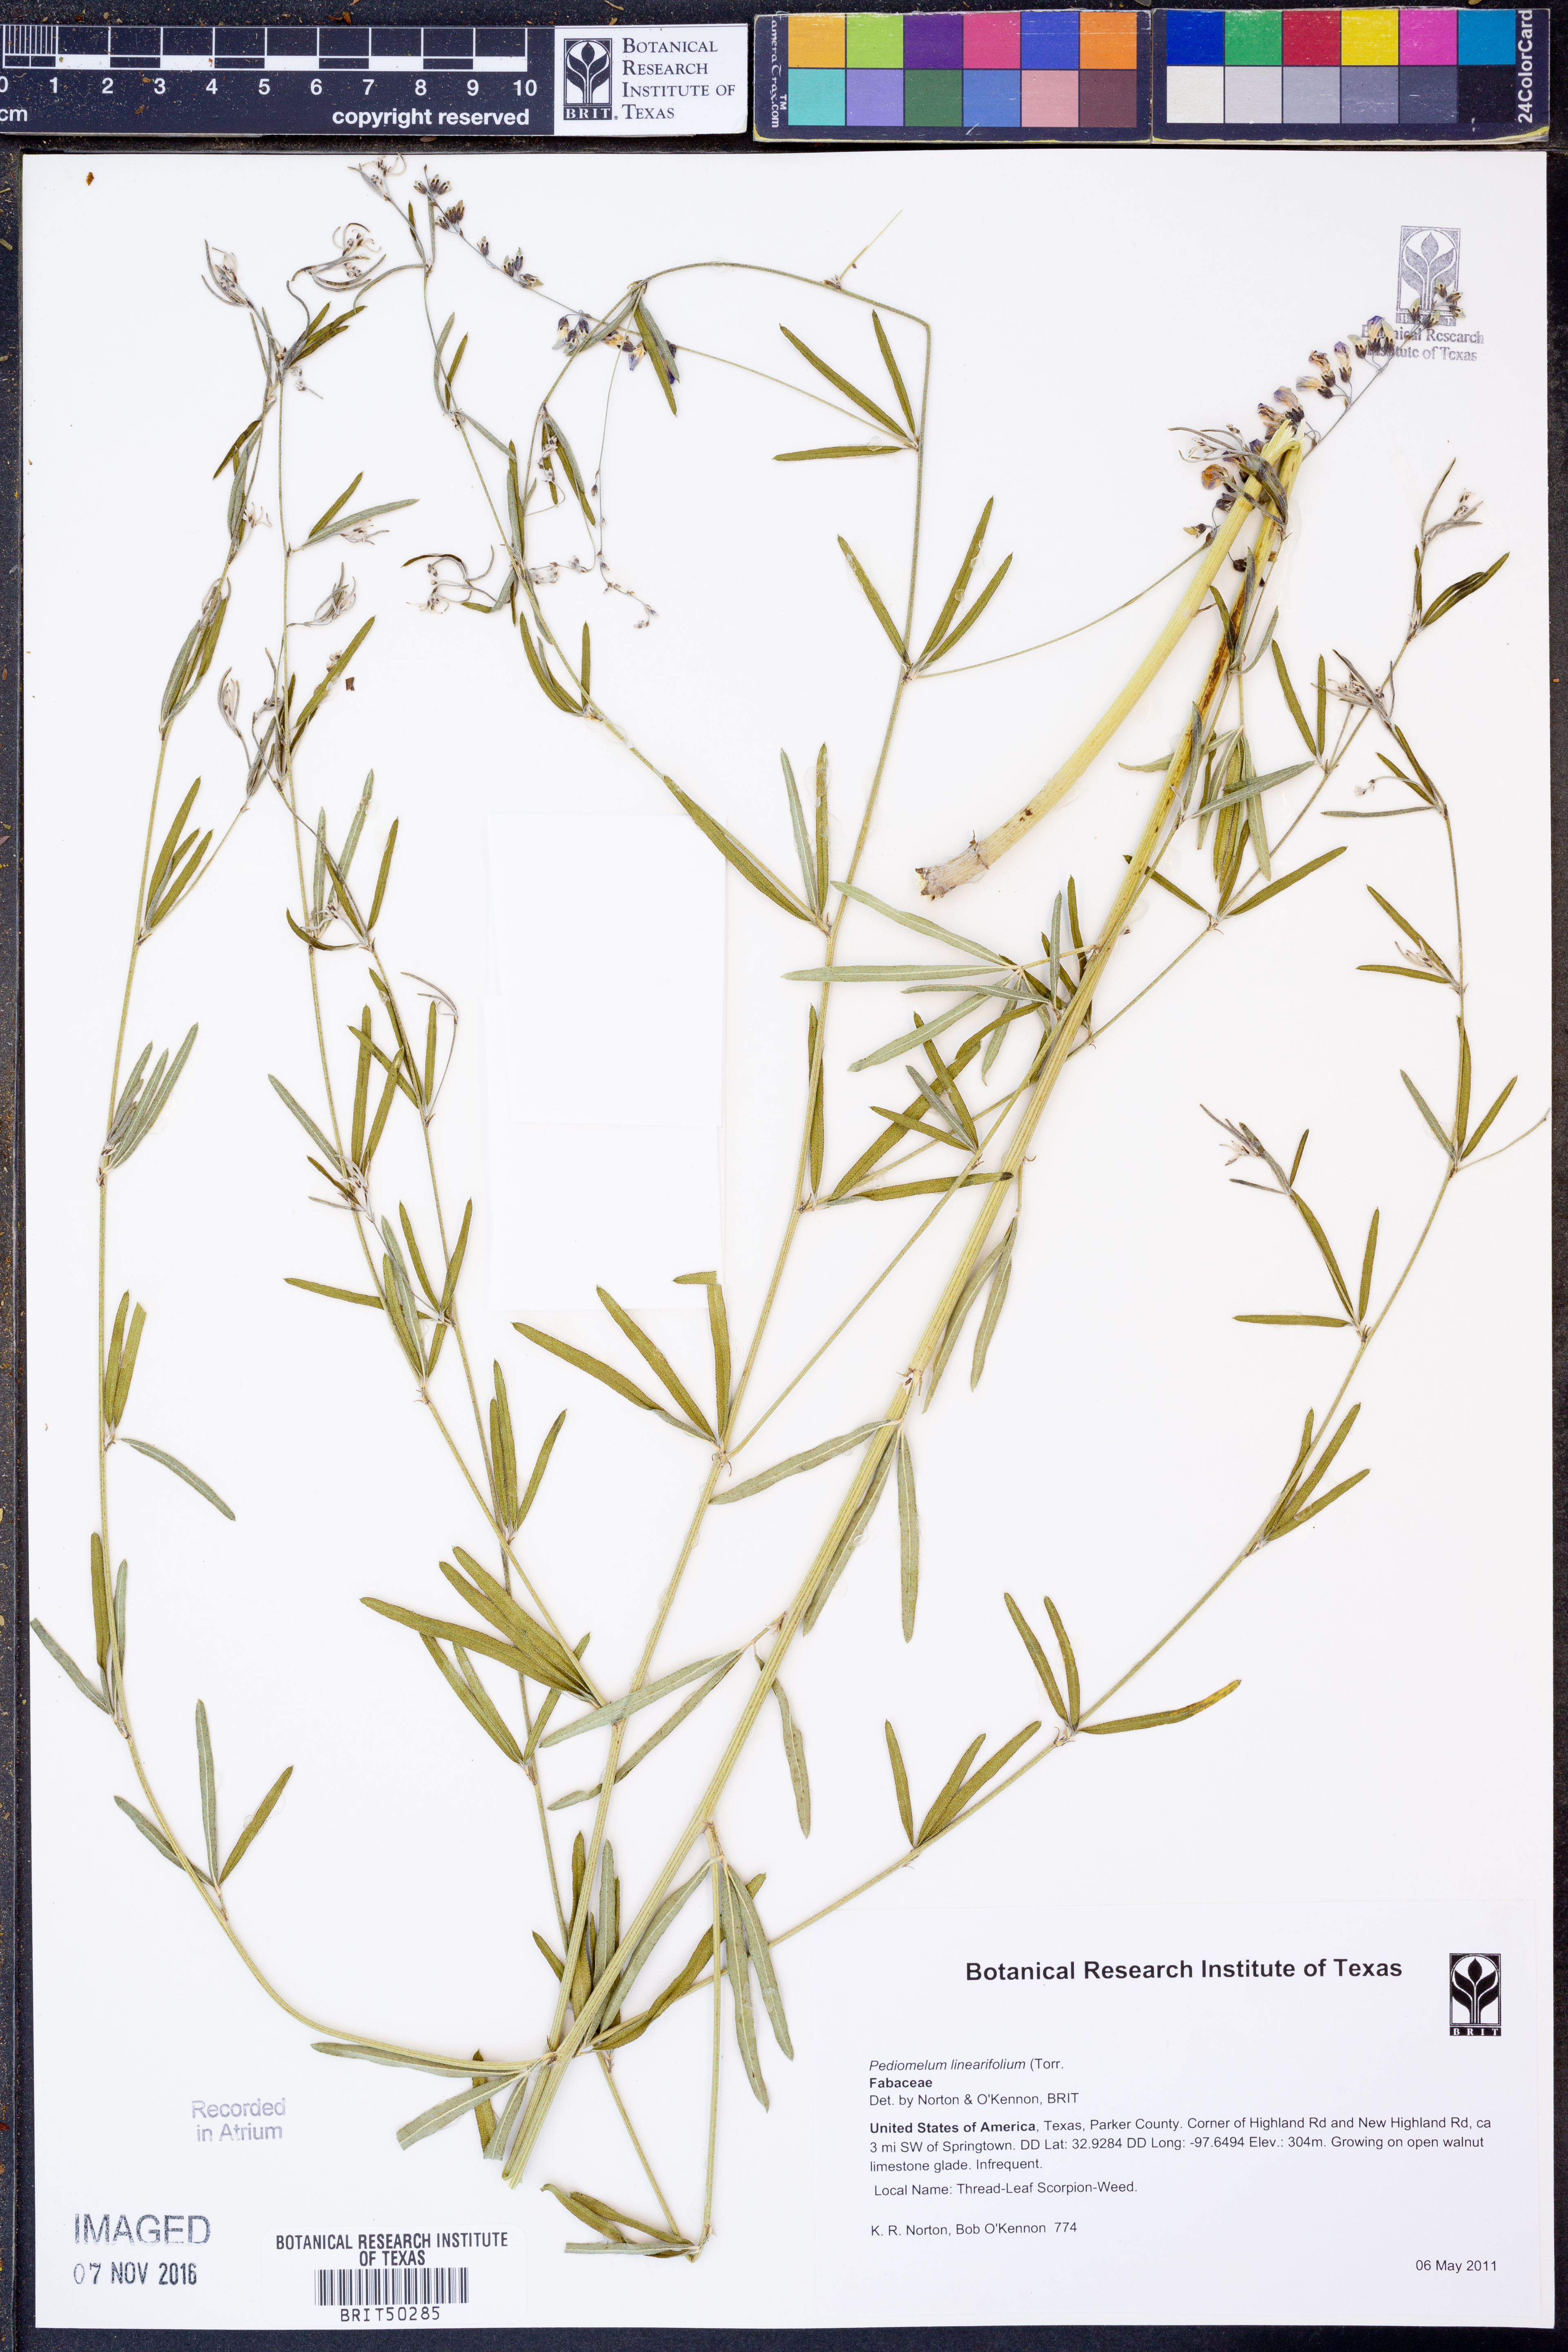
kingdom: Plantae
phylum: Tracheophyta
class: Magnoliopsida
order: Fabales
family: Fabaceae
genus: Pediomelum
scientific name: Pediomelum linearifolium
